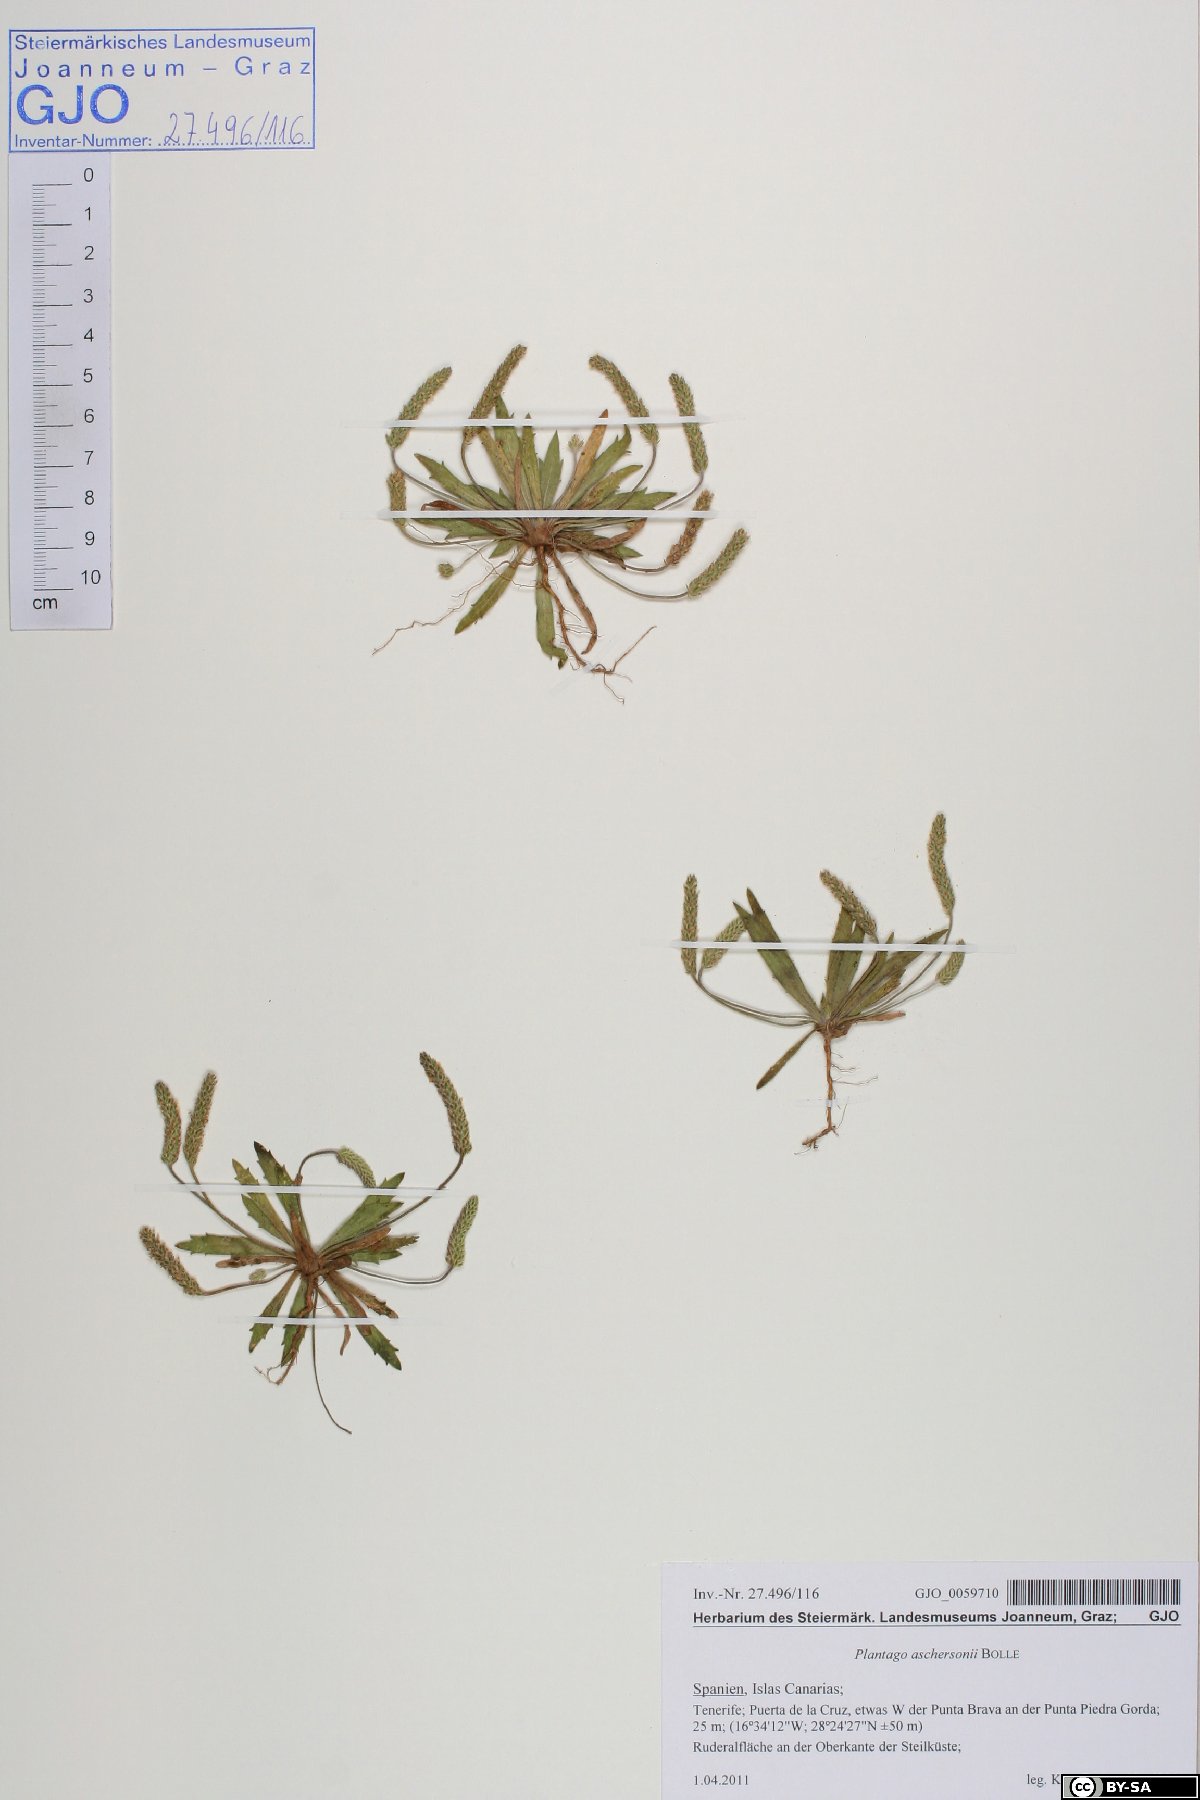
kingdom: Plantae
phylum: Tracheophyta
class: Magnoliopsida
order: Lamiales
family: Plantaginaceae
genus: Plantago
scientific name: Plantago coronopus
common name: Buck's-horn plantain
